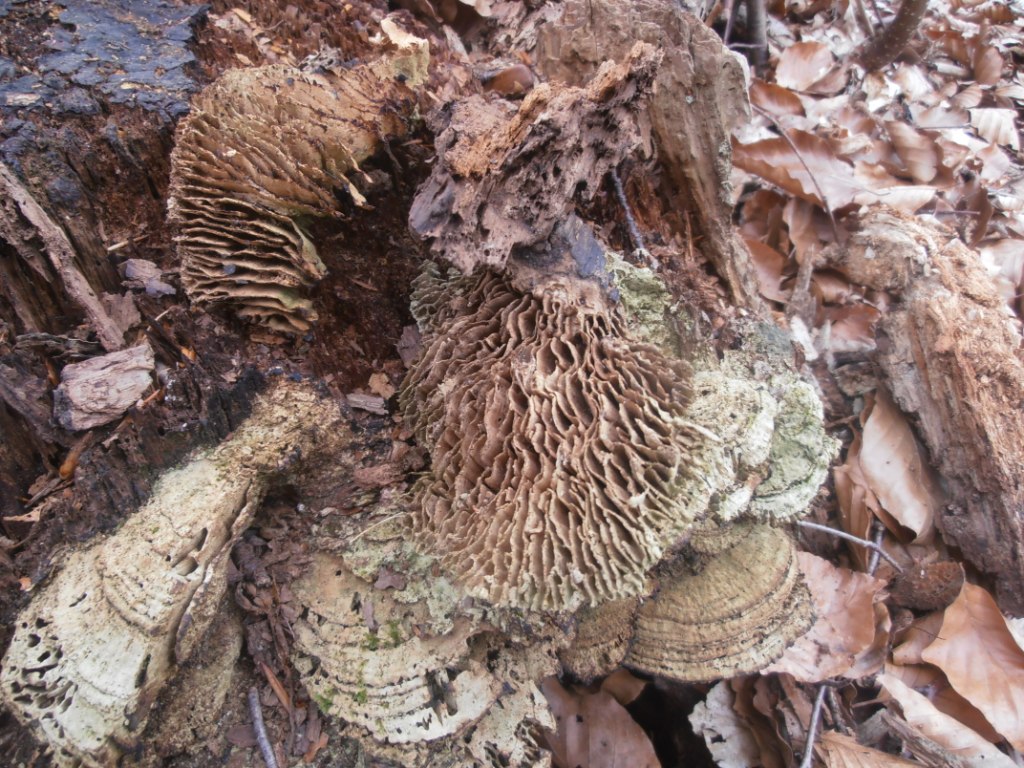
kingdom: Fungi
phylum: Basidiomycota
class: Agaricomycetes
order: Polyporales
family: Fomitopsidaceae
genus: Daedalea
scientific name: Daedalea quercina
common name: ege-labyrintsvamp
